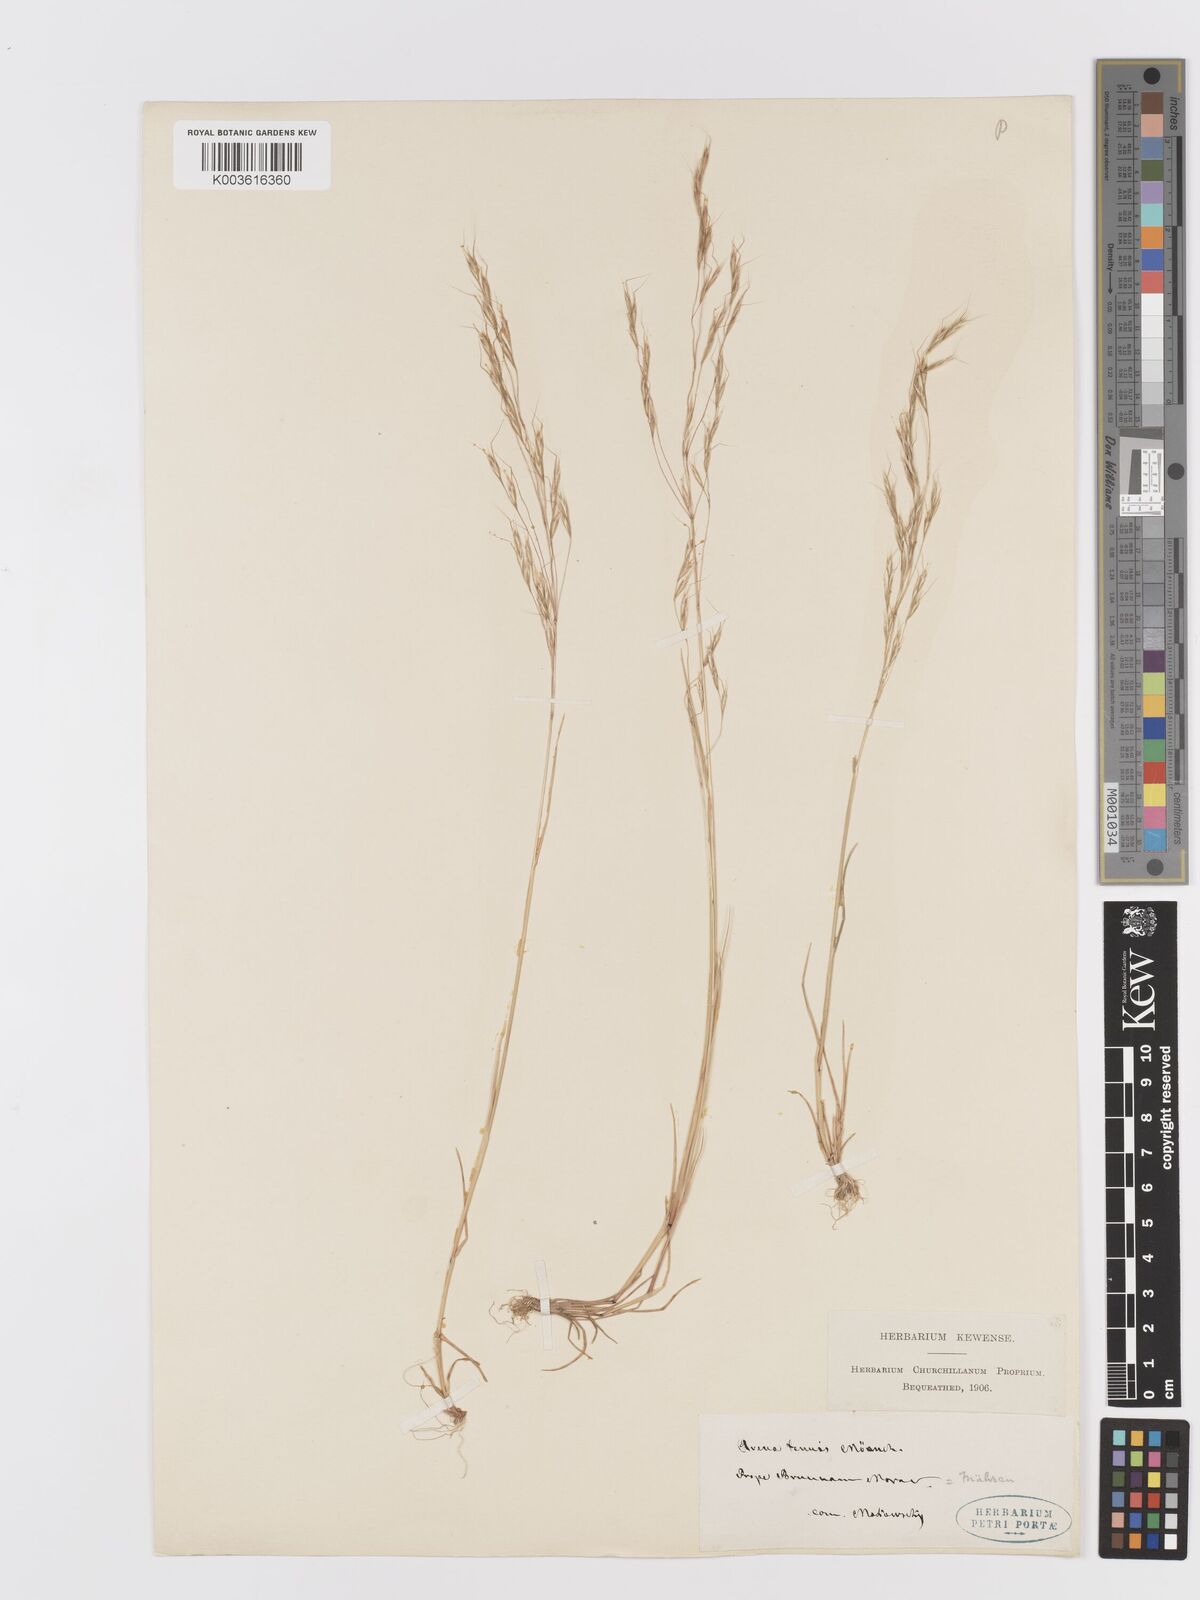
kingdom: Plantae
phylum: Tracheophyta
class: Liliopsida
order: Poales
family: Poaceae
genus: Ventenata
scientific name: Ventenata dubia
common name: North africa grass
